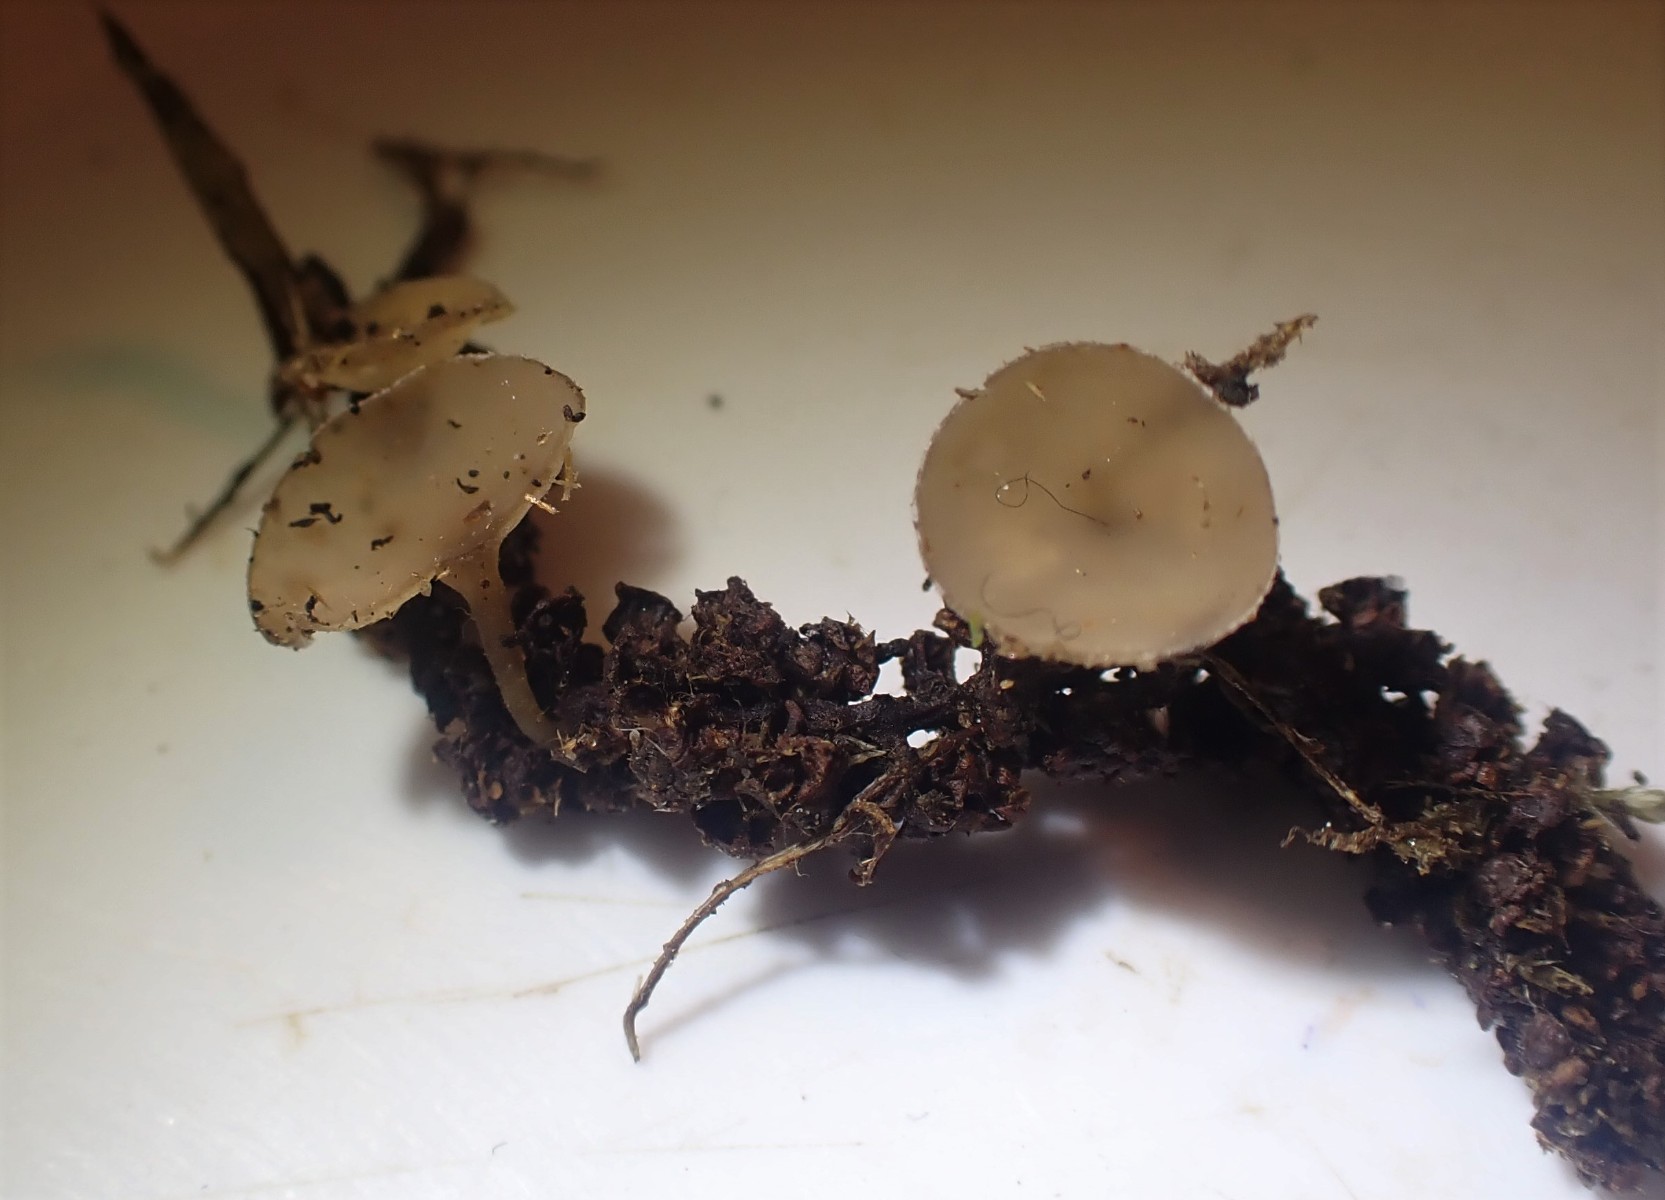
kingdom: Fungi
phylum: Ascomycota
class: Leotiomycetes
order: Helotiales
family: Sclerotiniaceae
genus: Ciboria
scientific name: Ciboria amentacea
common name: ellerakle-knoldskive
